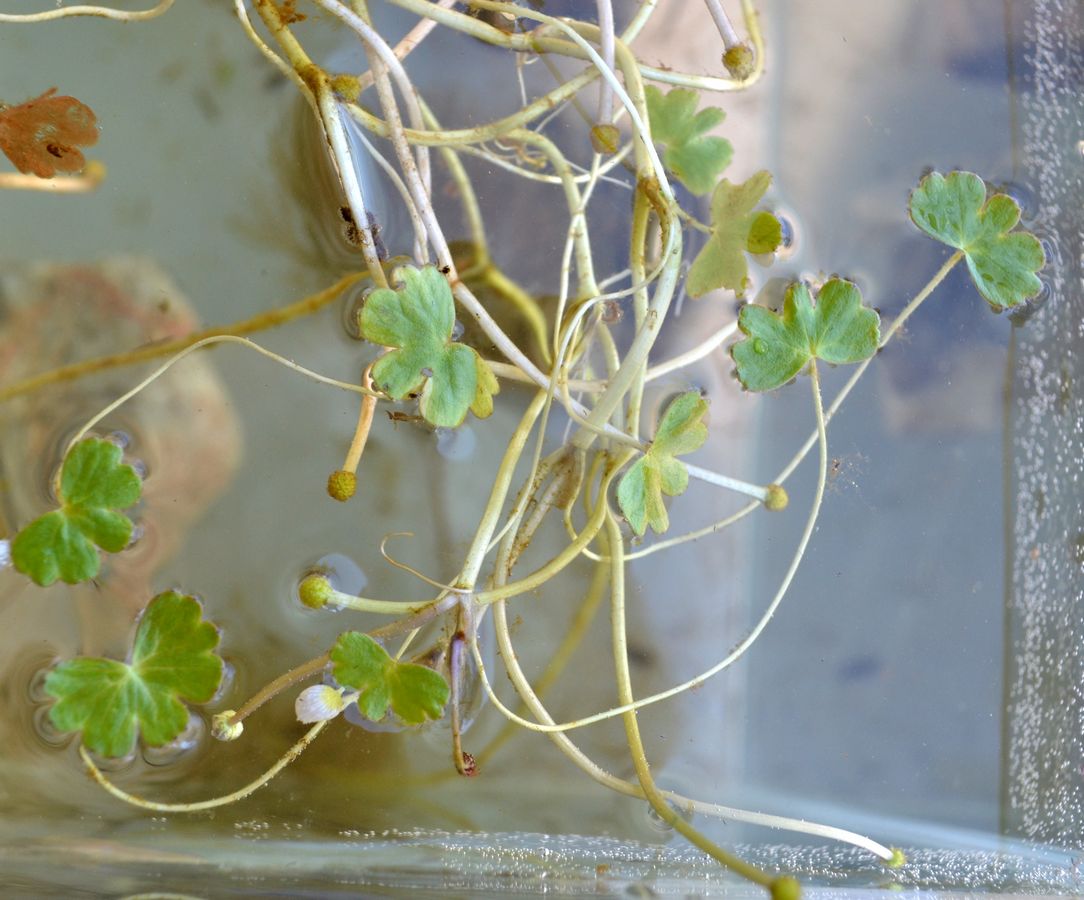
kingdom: Plantae
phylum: Tracheophyta
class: Magnoliopsida
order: Ranunculales
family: Ranunculaceae
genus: Ranunculus
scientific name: Ranunculus schmalhausenii
